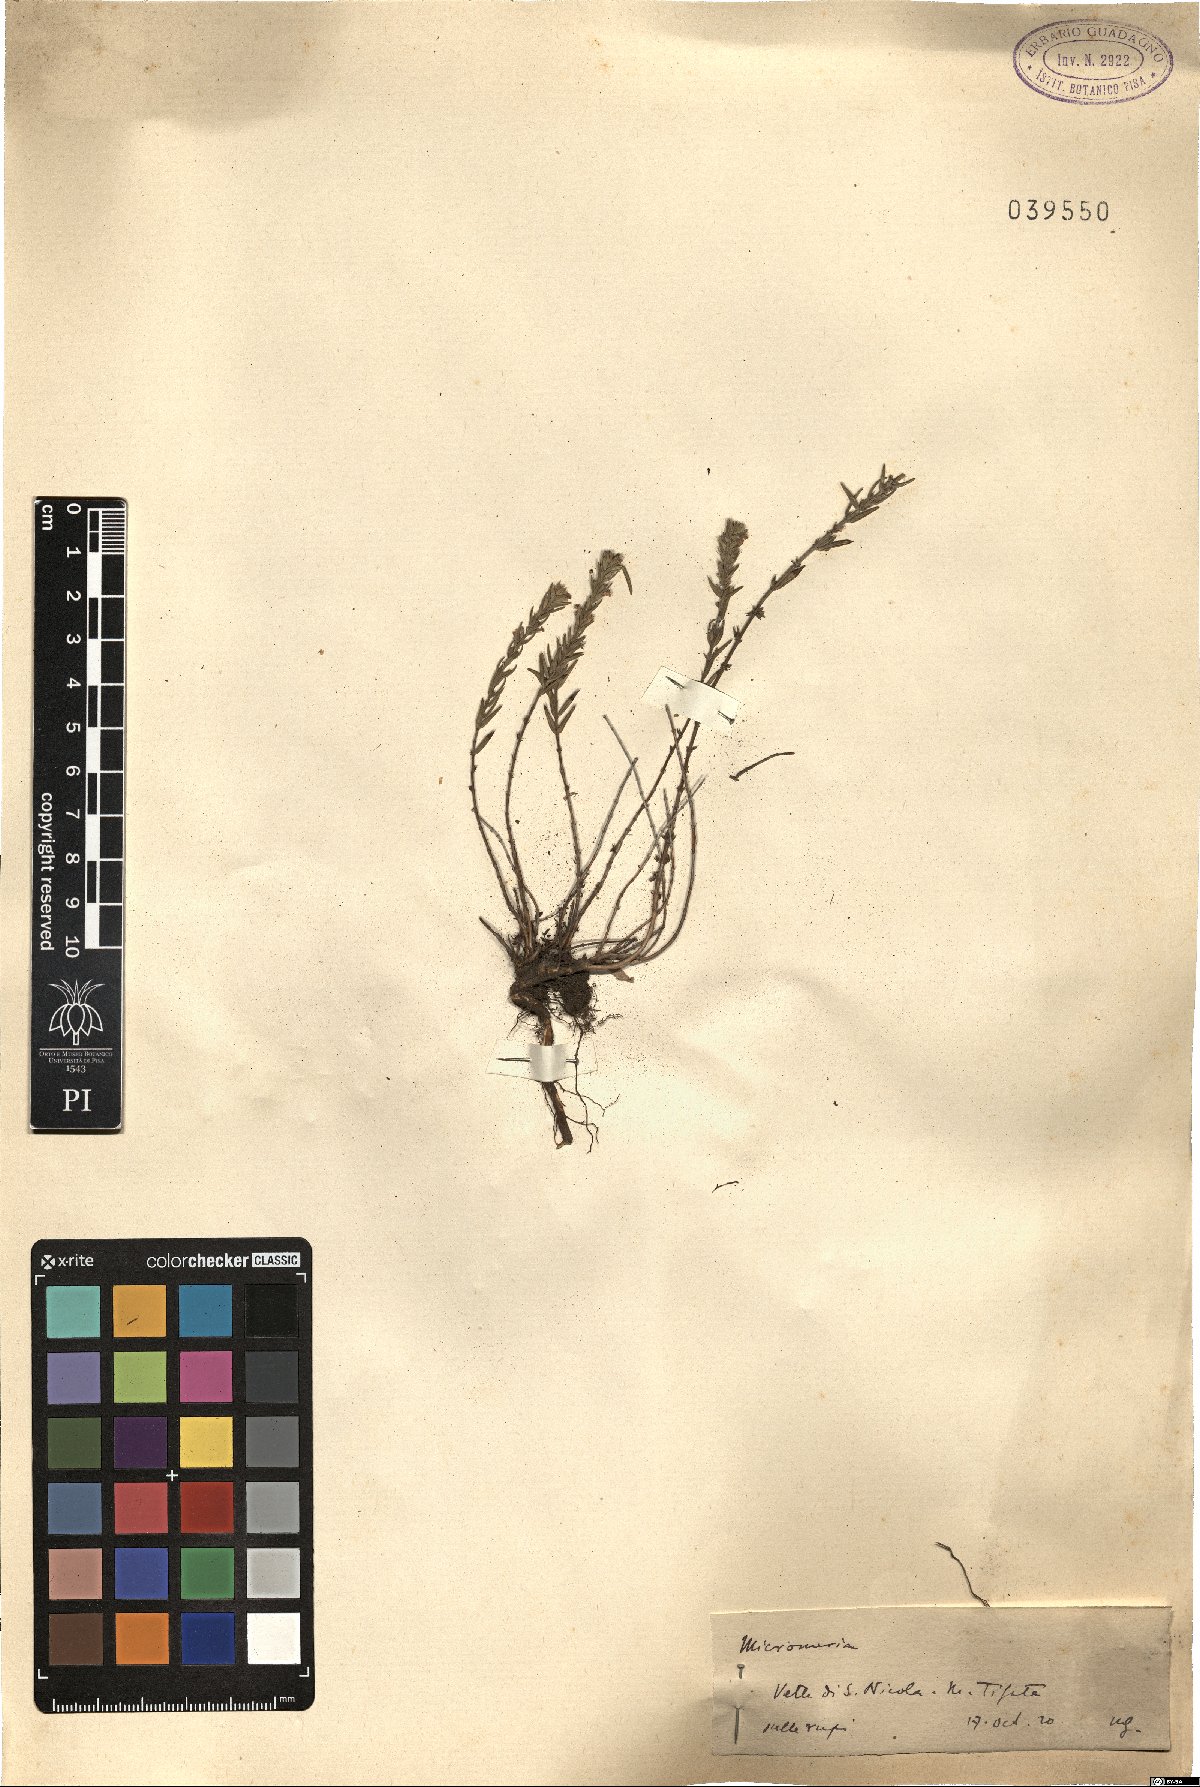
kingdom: Plantae
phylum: Tracheophyta
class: Magnoliopsida
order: Lamiales
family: Lamiaceae
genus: Micromeria
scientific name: Micromeria
